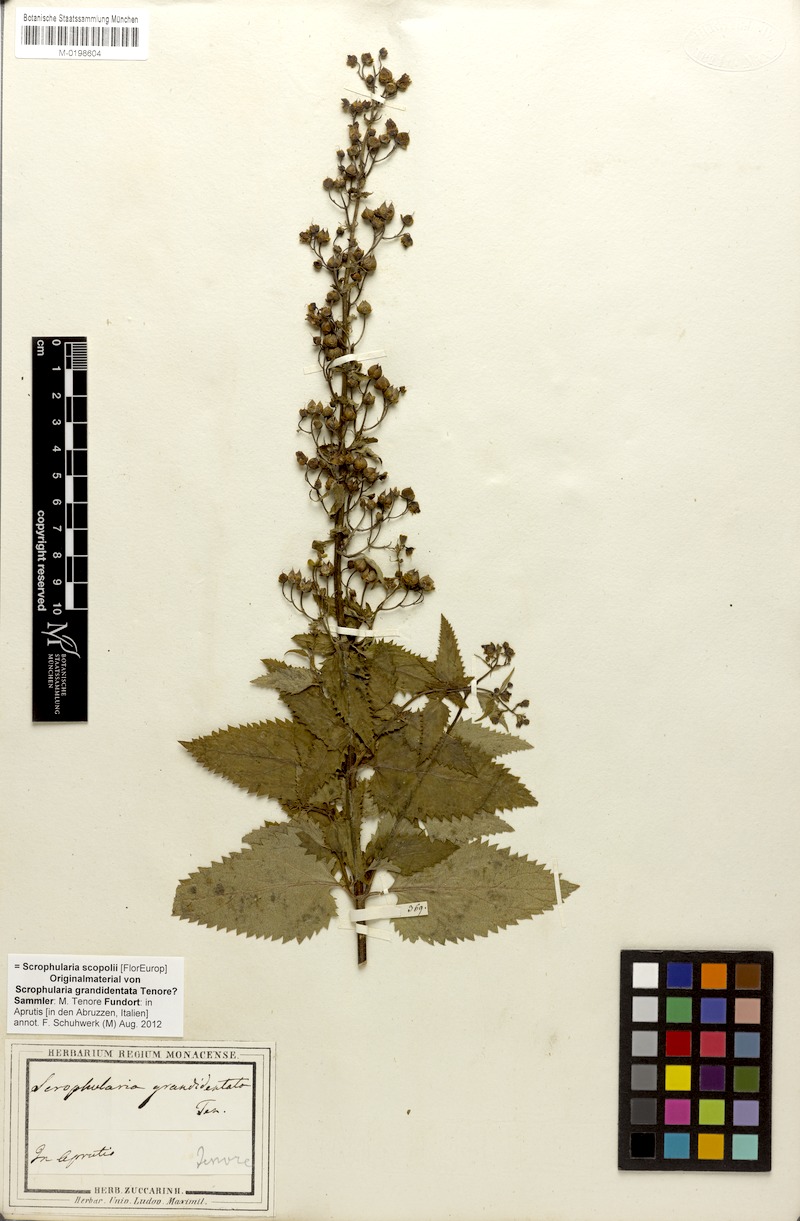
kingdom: Plantae
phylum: Tracheophyta
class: Magnoliopsida
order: Lamiales
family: Scrophulariaceae
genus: Scrophularia
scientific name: Scrophularia scopolii
